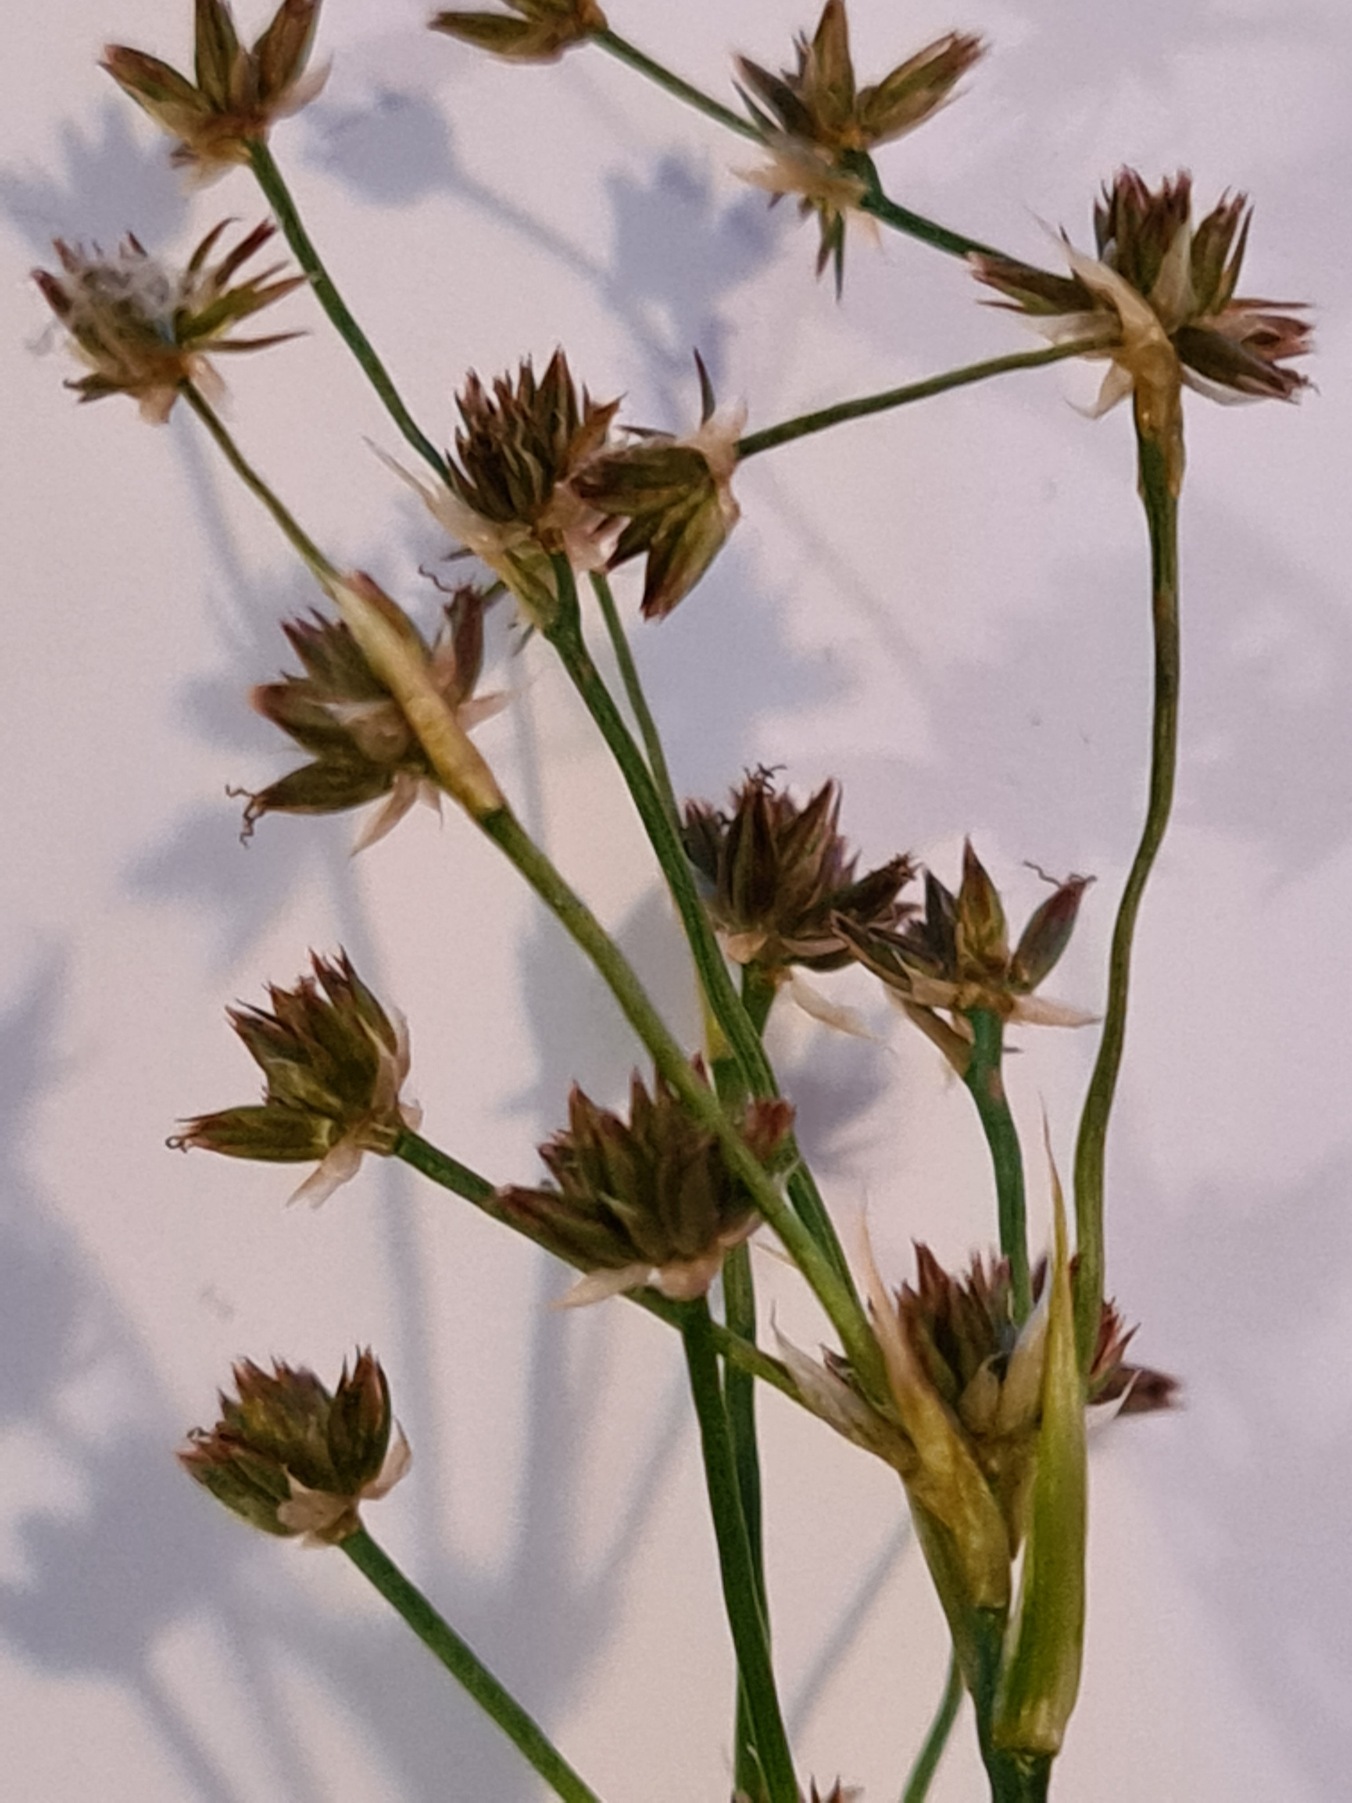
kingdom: Plantae
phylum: Tracheophyta
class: Liliopsida
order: Poales
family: Juncaceae
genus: Juncus
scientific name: Juncus acutiflorus
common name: Spidsblomstret siv
